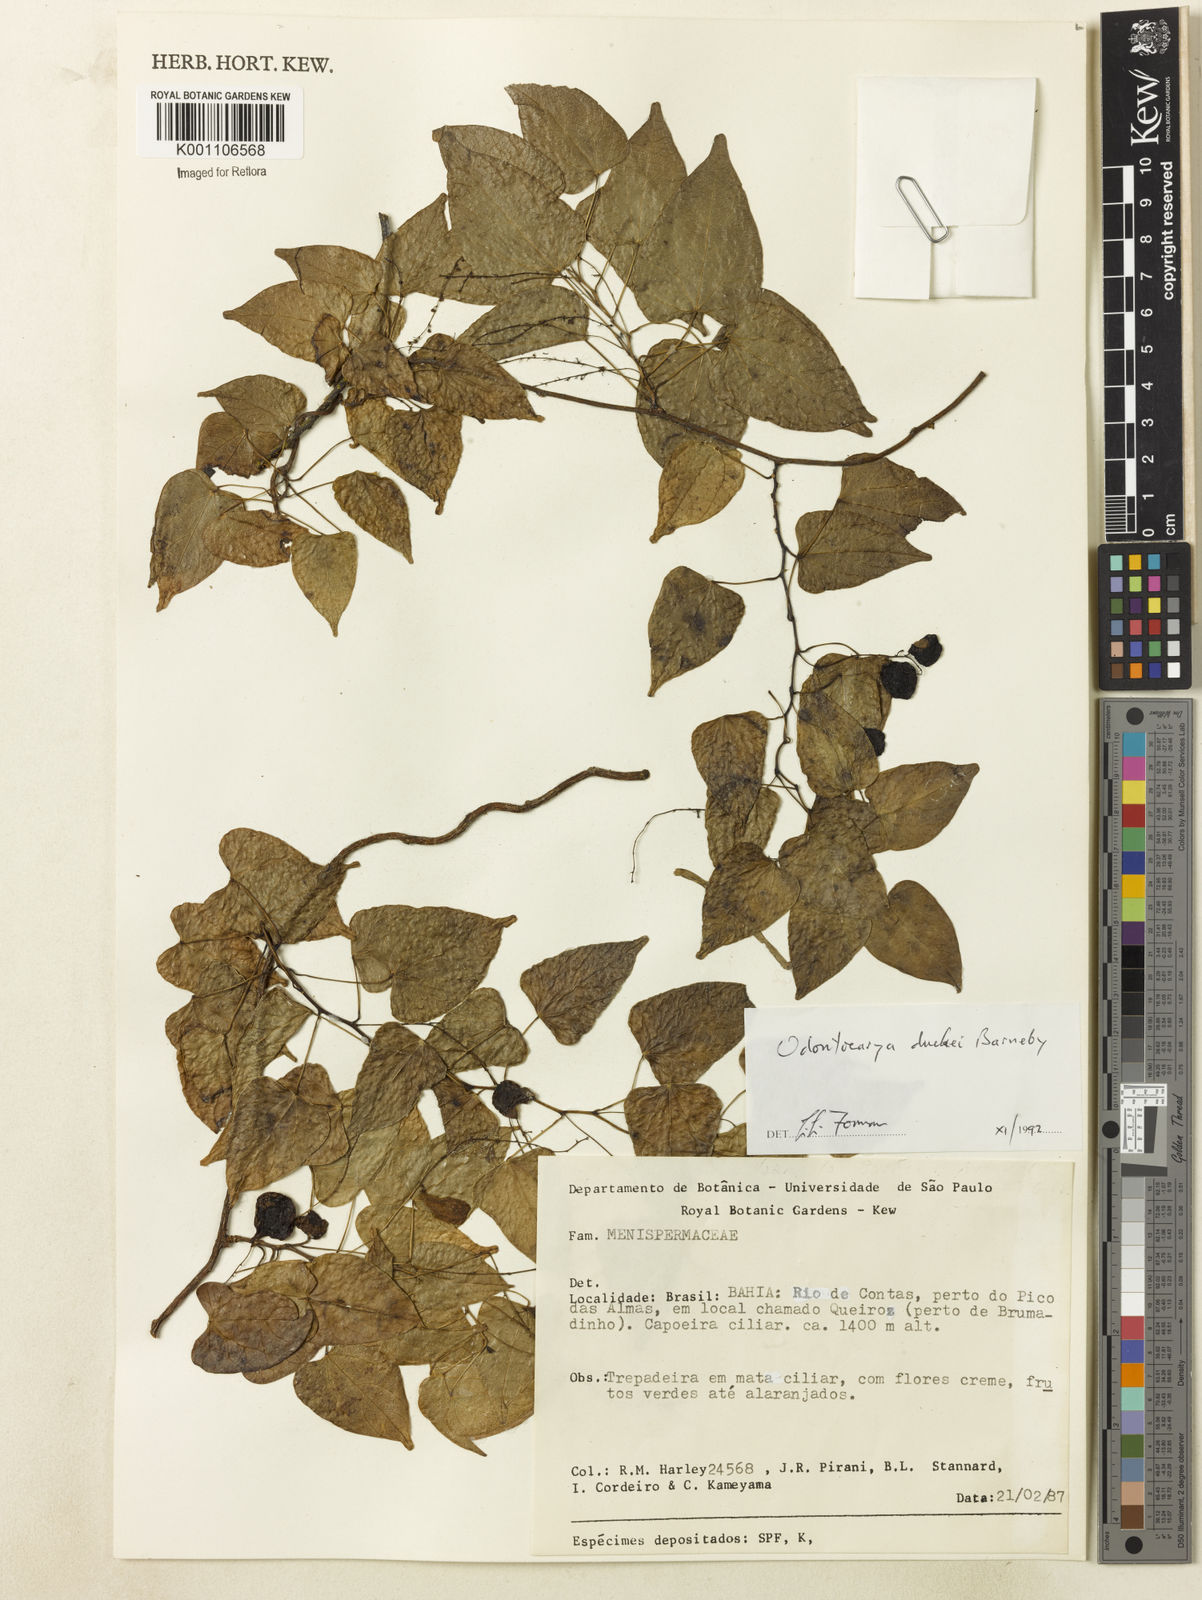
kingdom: Plantae
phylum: Tracheophyta
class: Magnoliopsida
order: Ranunculales
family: Menispermaceae
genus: Odontocarya
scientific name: Odontocarya duckei
